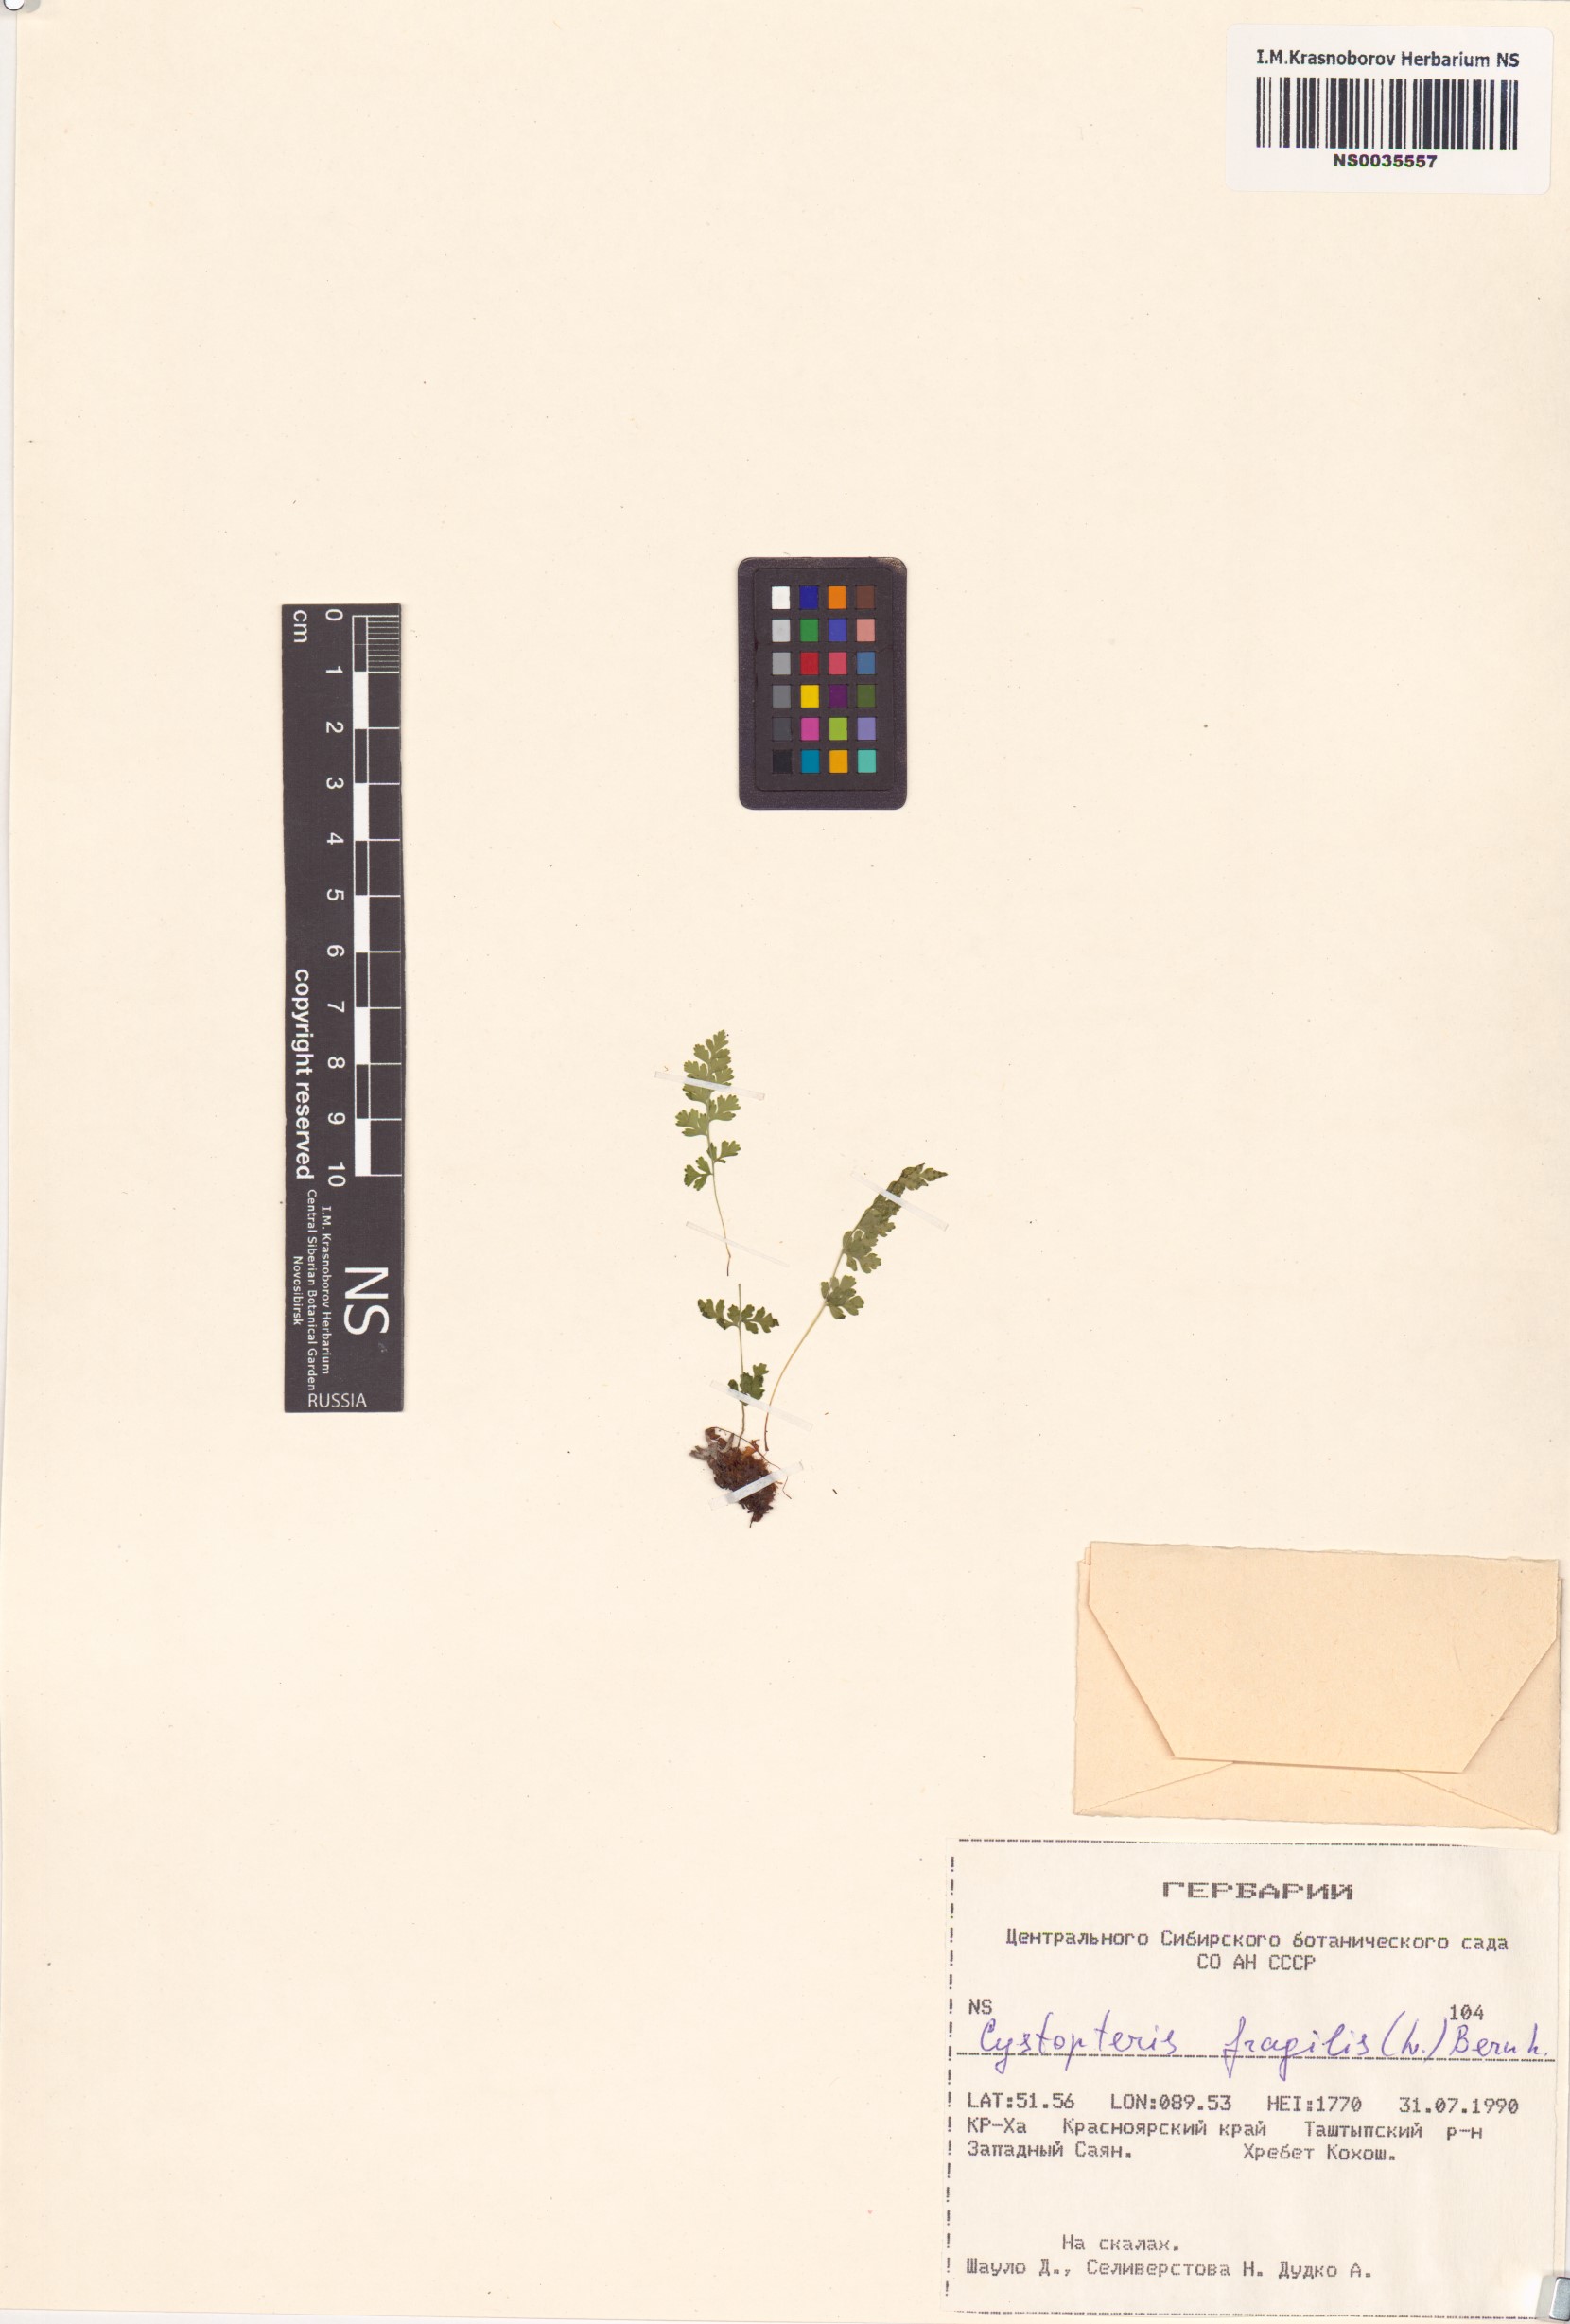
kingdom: Plantae
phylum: Tracheophyta
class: Polypodiopsida
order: Polypodiales
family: Cystopteridaceae
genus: Cystopteris
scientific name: Cystopteris fragilis
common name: Brittle bladder fern
